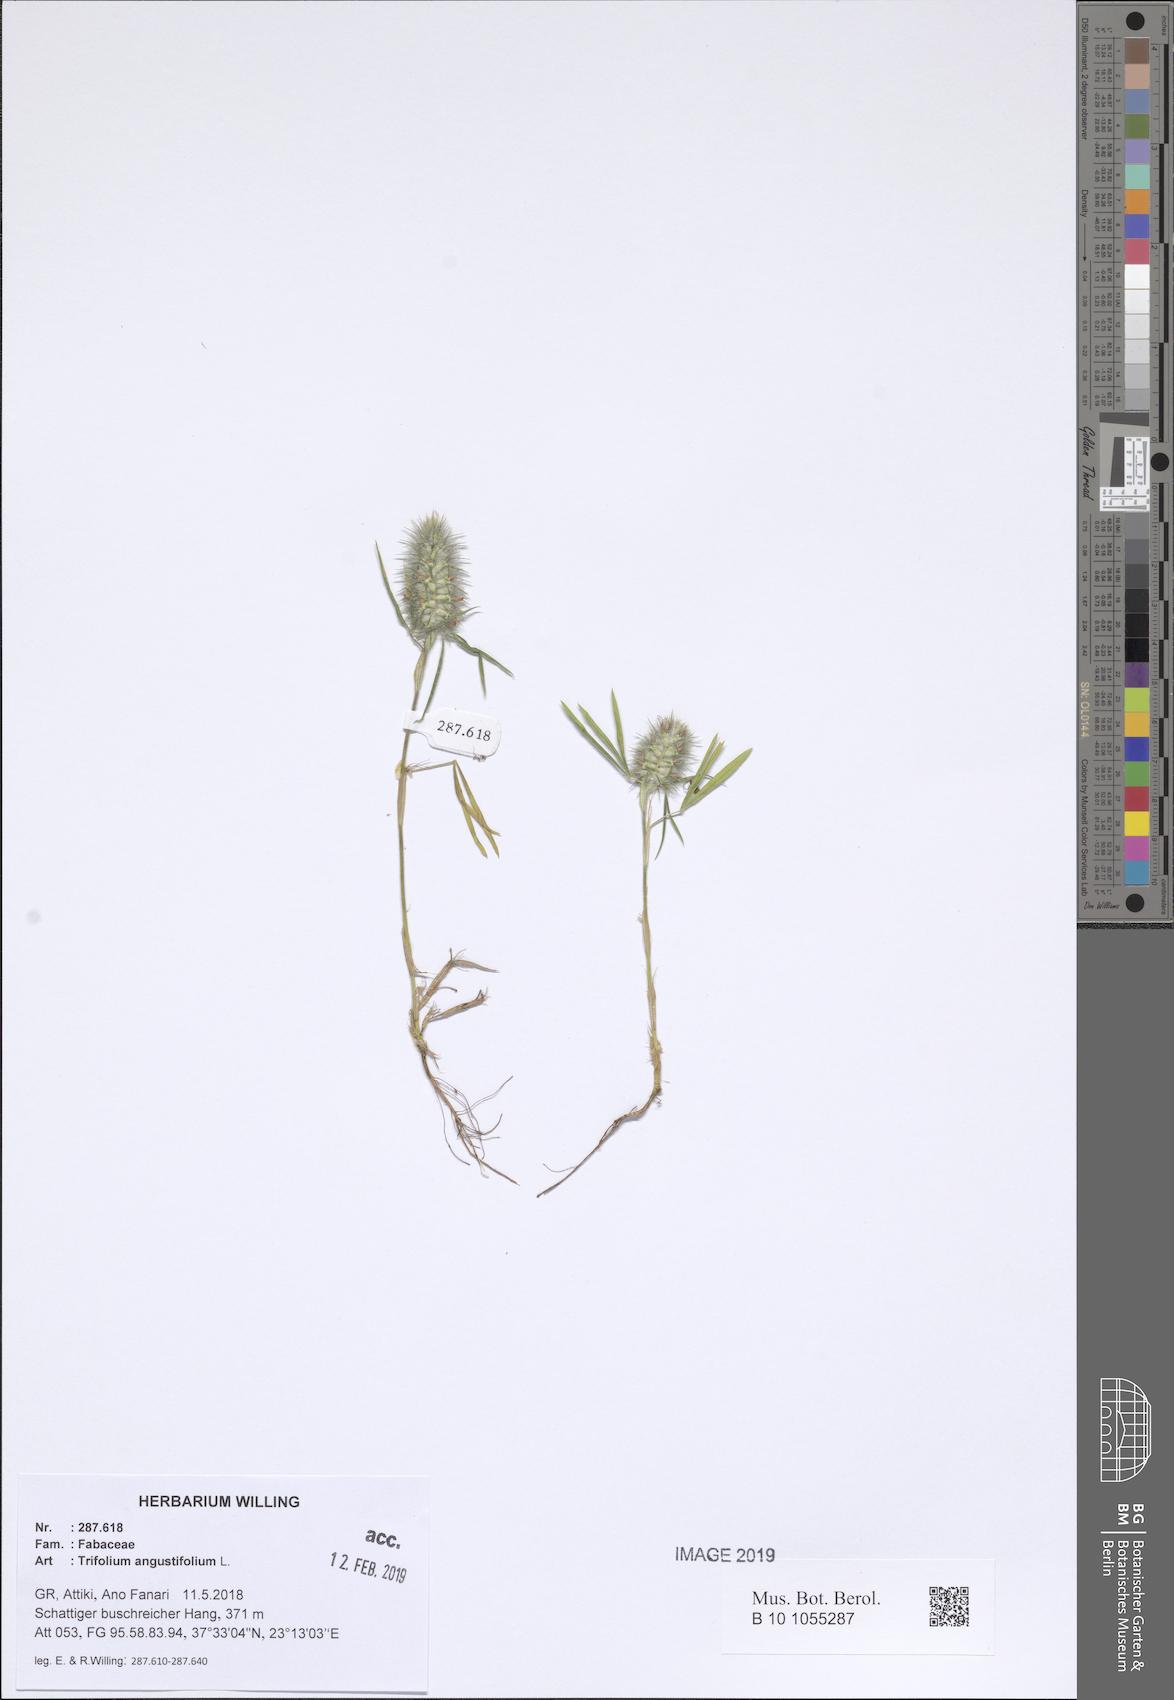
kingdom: Plantae
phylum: Tracheophyta
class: Magnoliopsida
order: Fabales
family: Fabaceae
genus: Trifolium
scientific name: Trifolium angustifolium
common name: Narrow clover
